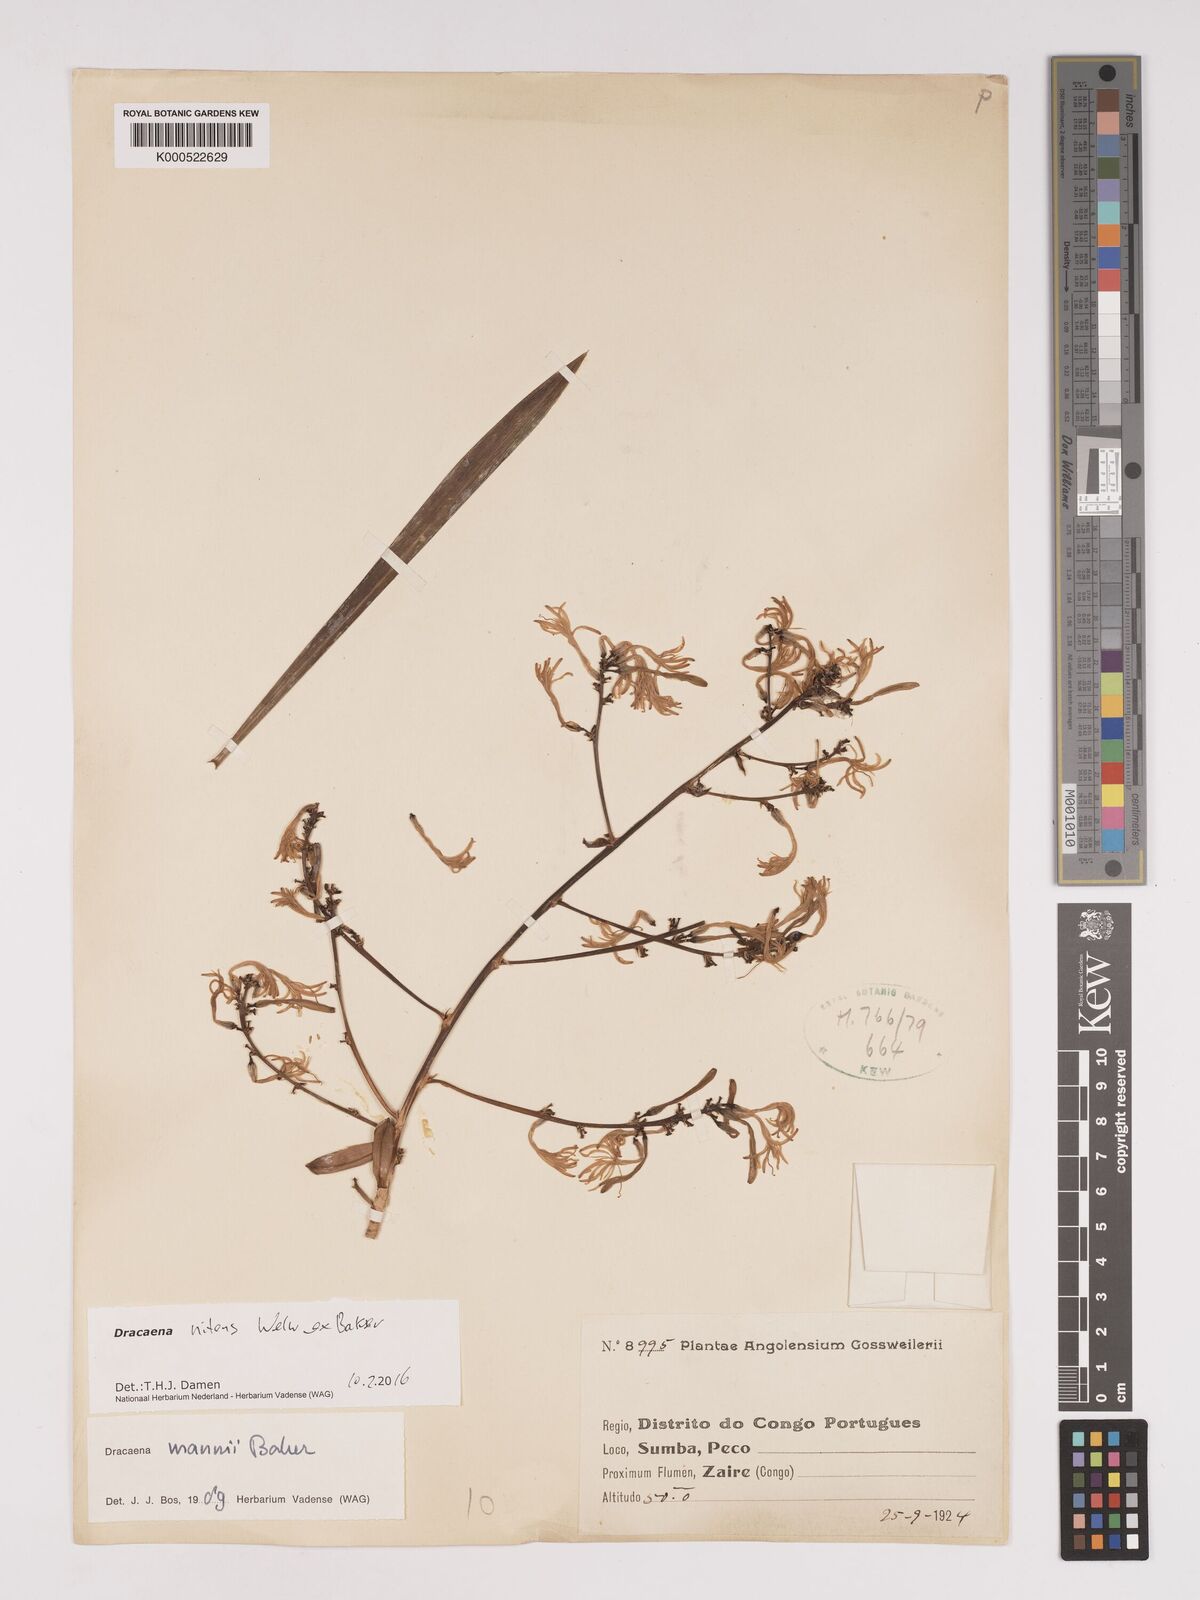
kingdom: Plantae
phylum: Tracheophyta
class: Liliopsida
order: Asparagales
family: Asparagaceae
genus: Dracaena
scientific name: Dracaena nitens
